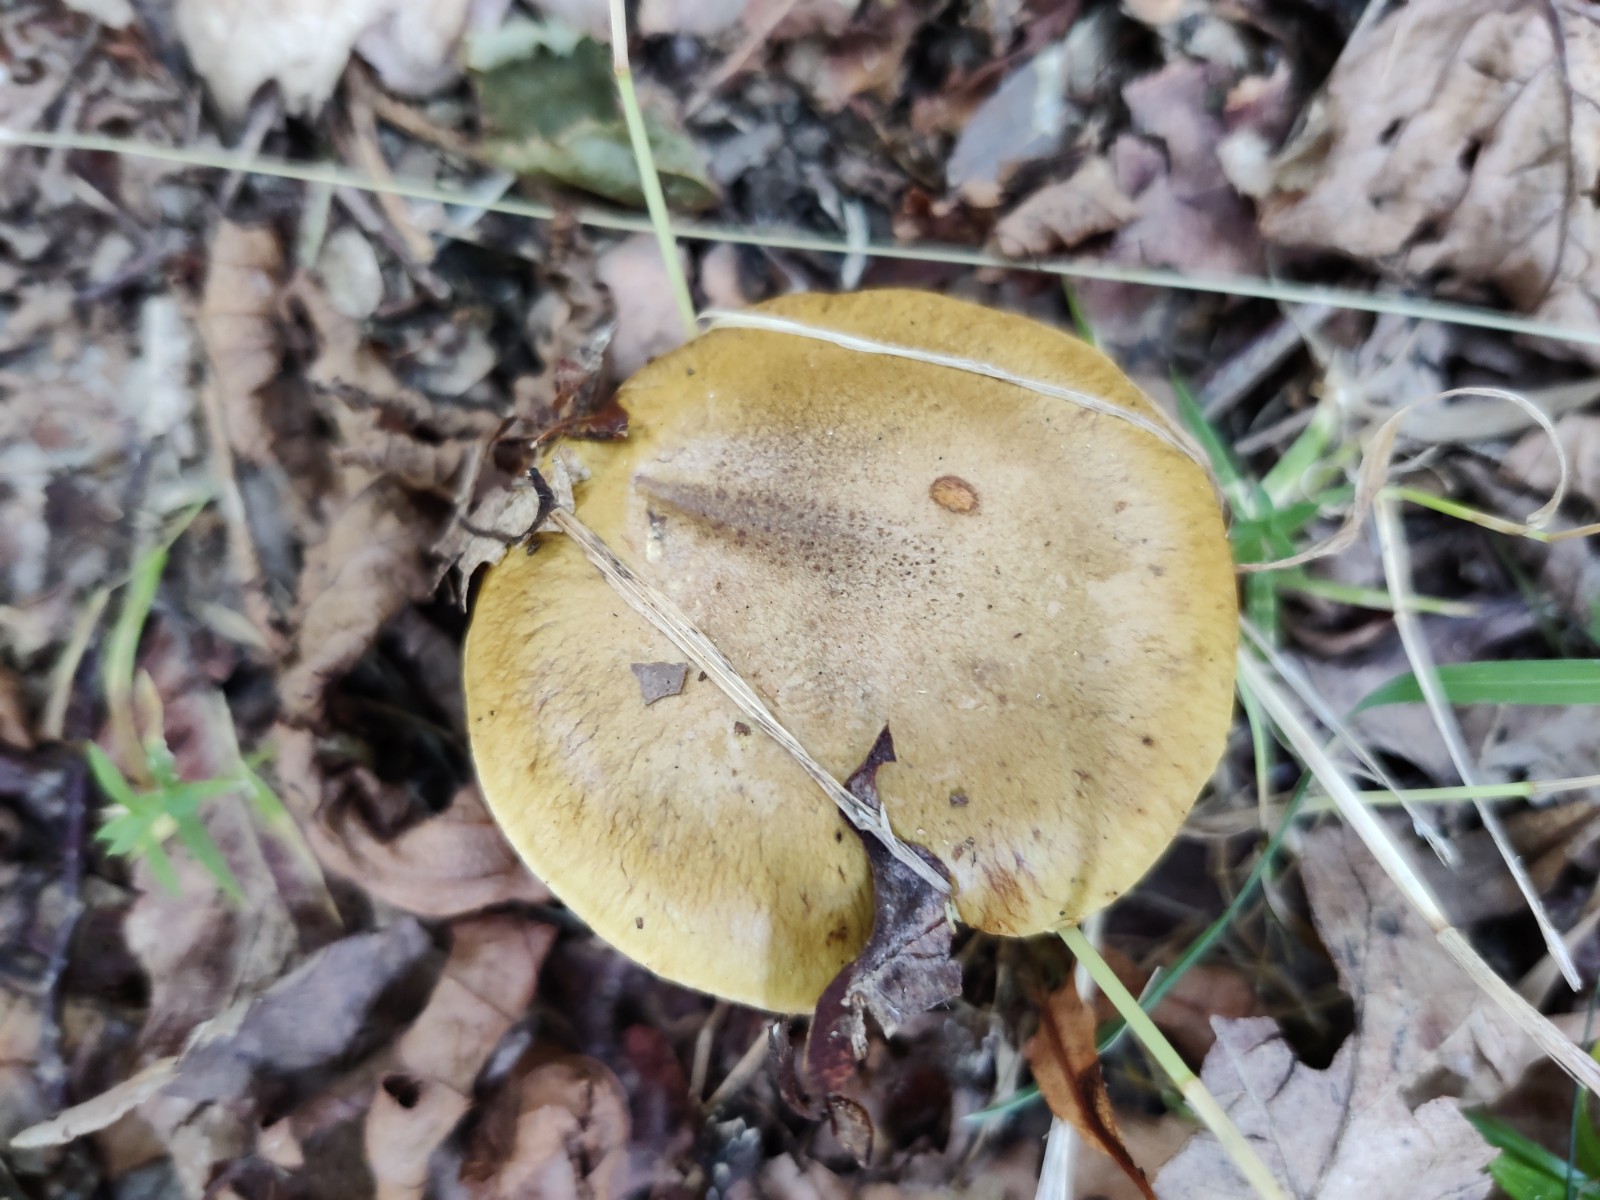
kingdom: Fungi
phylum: Basidiomycota
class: Agaricomycetes
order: Agaricales
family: Cortinariaceae
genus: Calonarius
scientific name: Calonarius xanthochlorus
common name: gulgrøn slørhat
